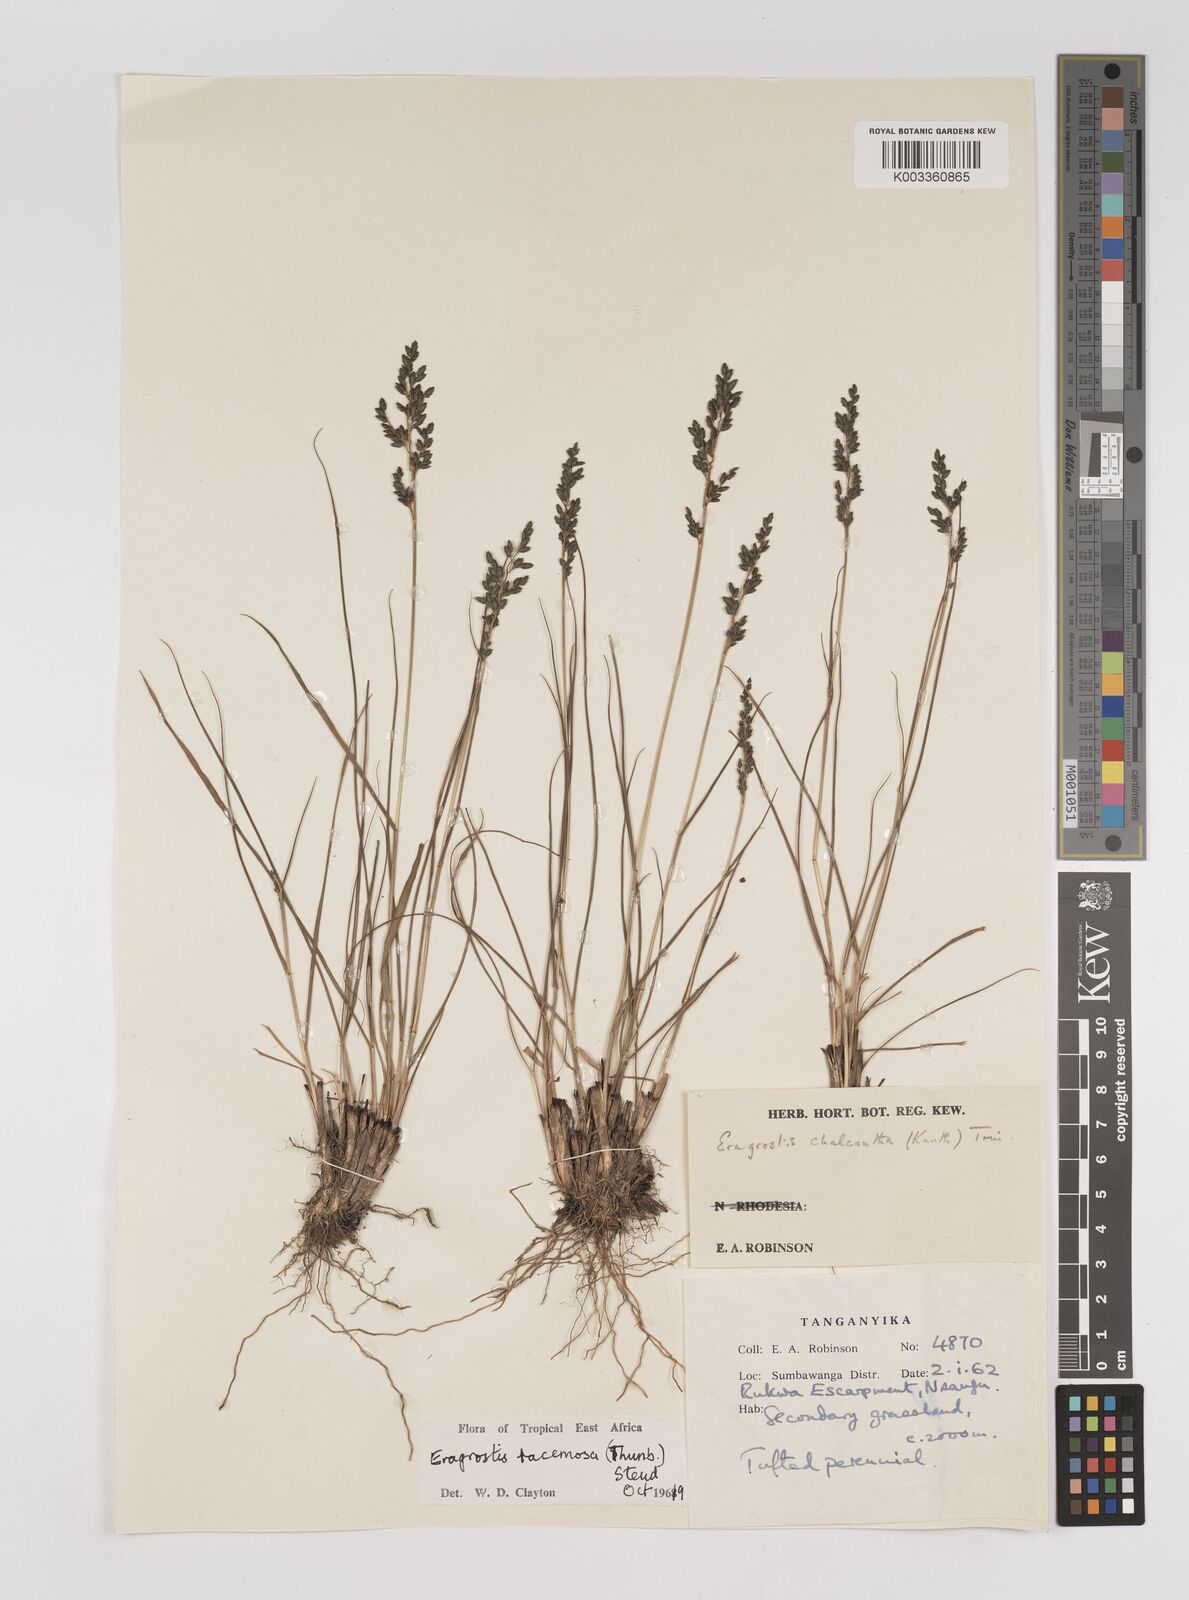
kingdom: Plantae
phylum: Tracheophyta
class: Liliopsida
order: Poales
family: Poaceae
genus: Eragrostis
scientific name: Eragrostis racemosa
